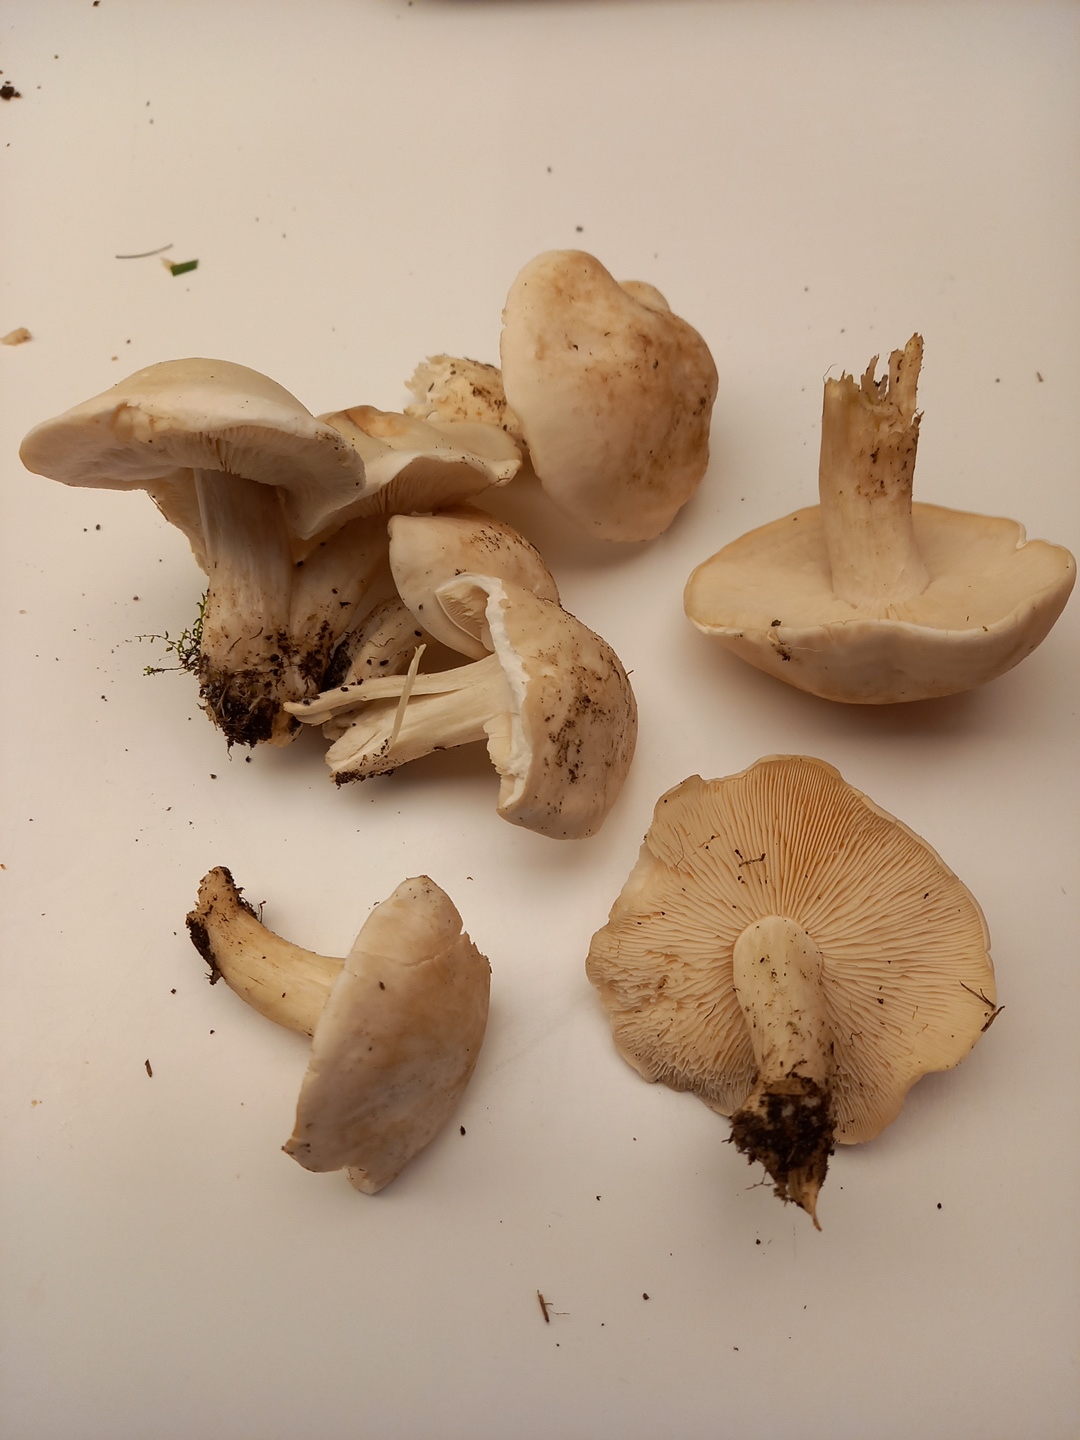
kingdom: Fungi
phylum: Basidiomycota
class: Agaricomycetes
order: Agaricales
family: Lyophyllaceae
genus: Calocybe
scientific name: Calocybe gambosa
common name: vårmusseron
